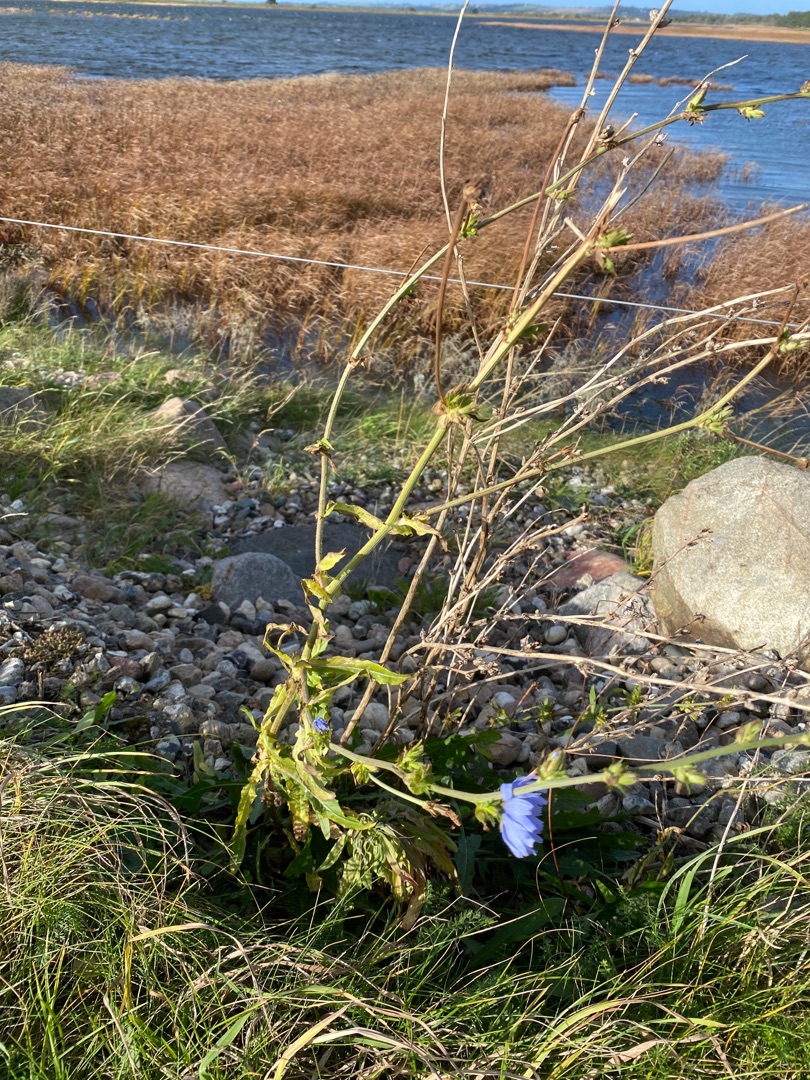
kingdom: Plantae
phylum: Tracheophyta
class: Magnoliopsida
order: Asterales
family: Asteraceae
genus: Cichorium
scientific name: Cichorium intybus
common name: Cikorie
